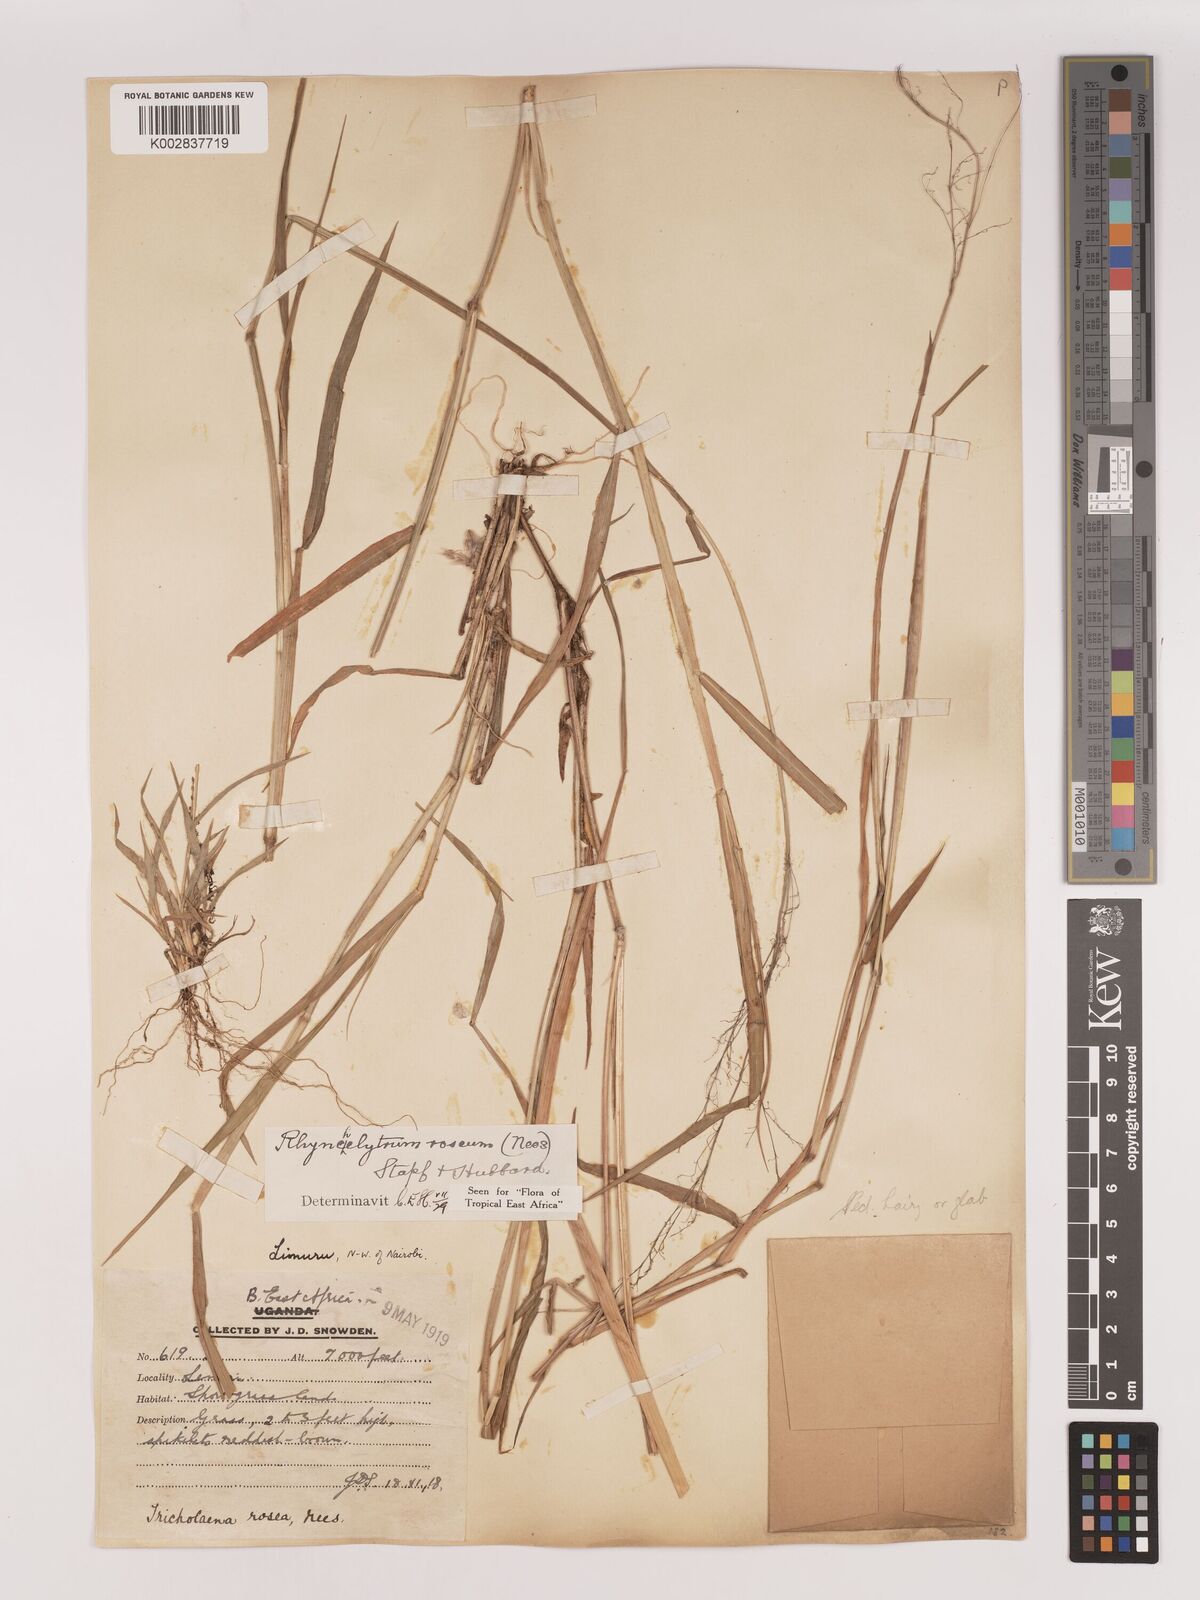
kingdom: Plantae
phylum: Tracheophyta
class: Liliopsida
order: Poales
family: Poaceae
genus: Melinis
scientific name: Melinis repens
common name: Rose natal grass
